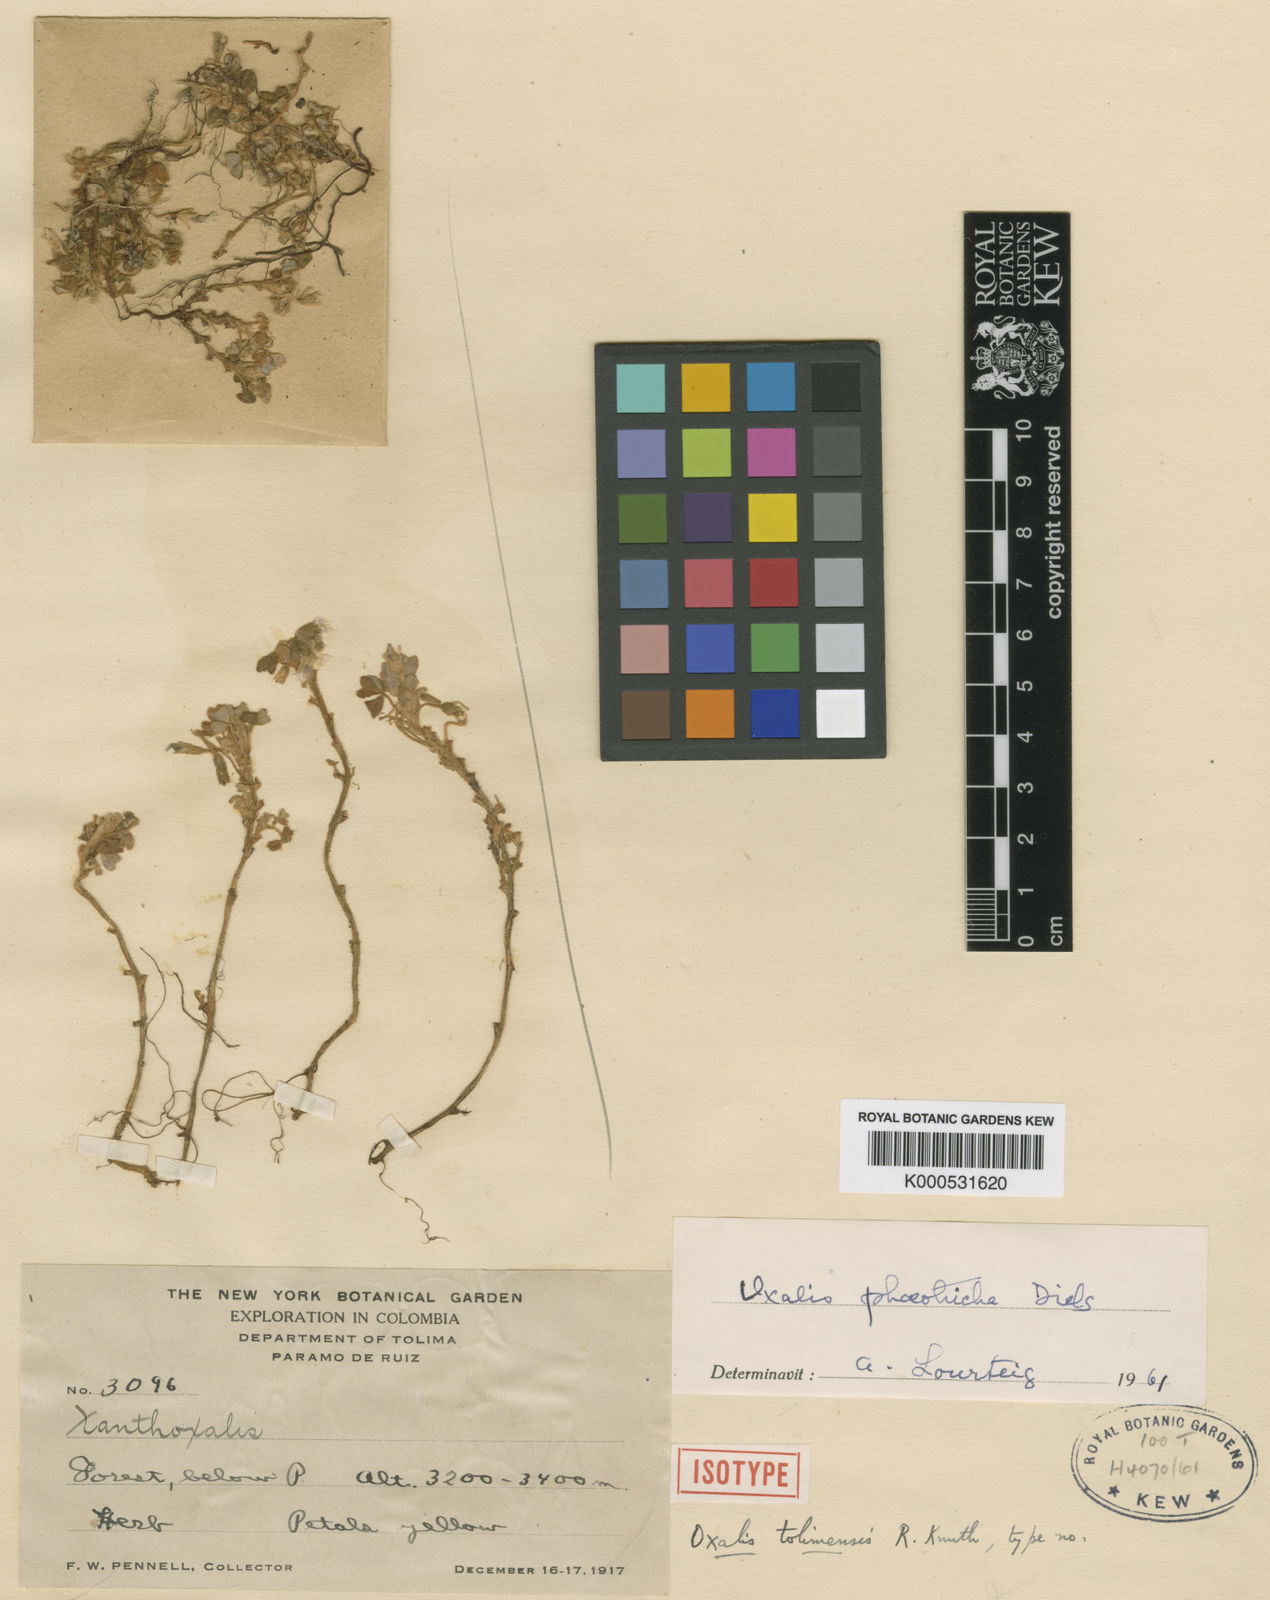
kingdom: Plantae
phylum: Tracheophyta
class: Magnoliopsida
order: Oxalidales
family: Oxalidaceae
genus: Oxalis
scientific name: Oxalis phaeotricha
